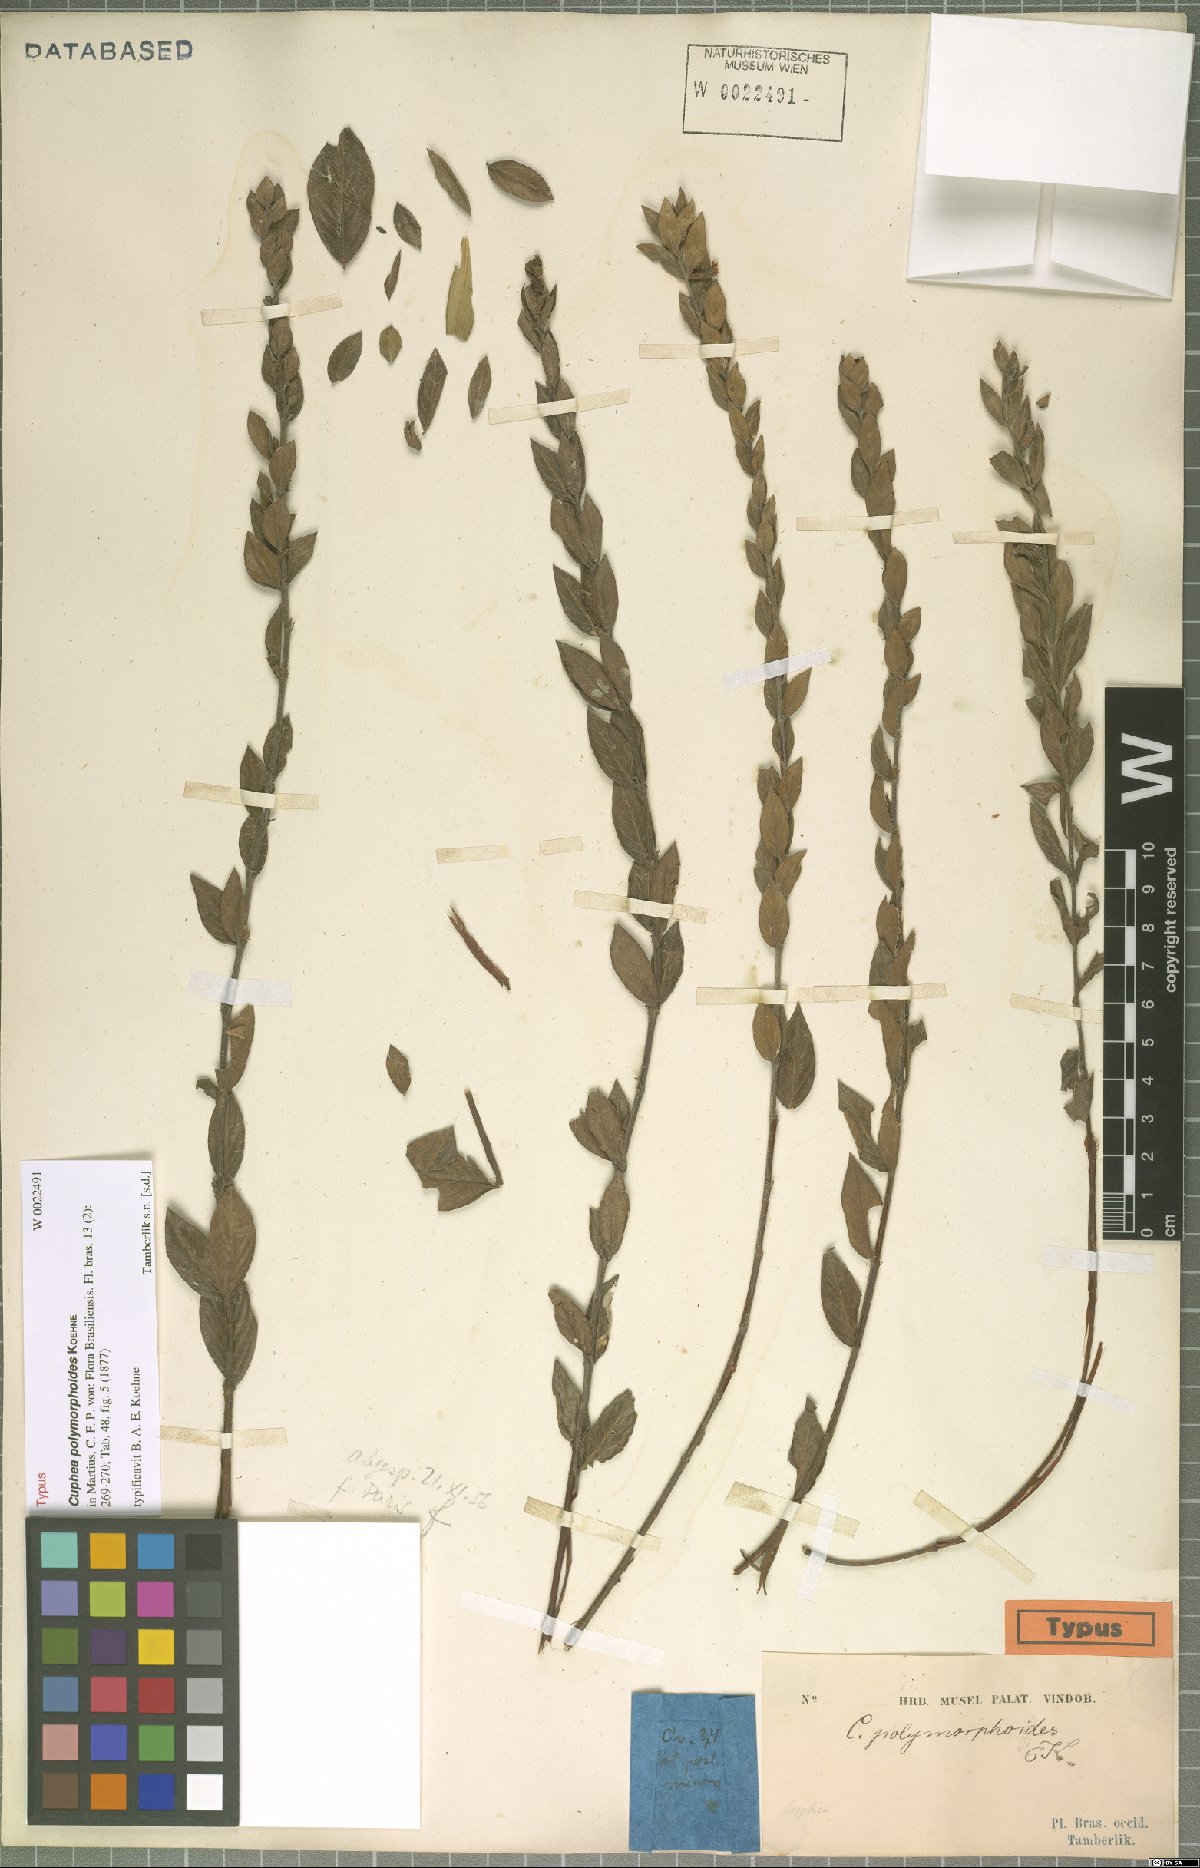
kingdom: Plantae
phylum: Tracheophyta
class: Magnoliopsida
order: Myrtales
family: Lythraceae
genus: Cuphea
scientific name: Cuphea spermacoce
